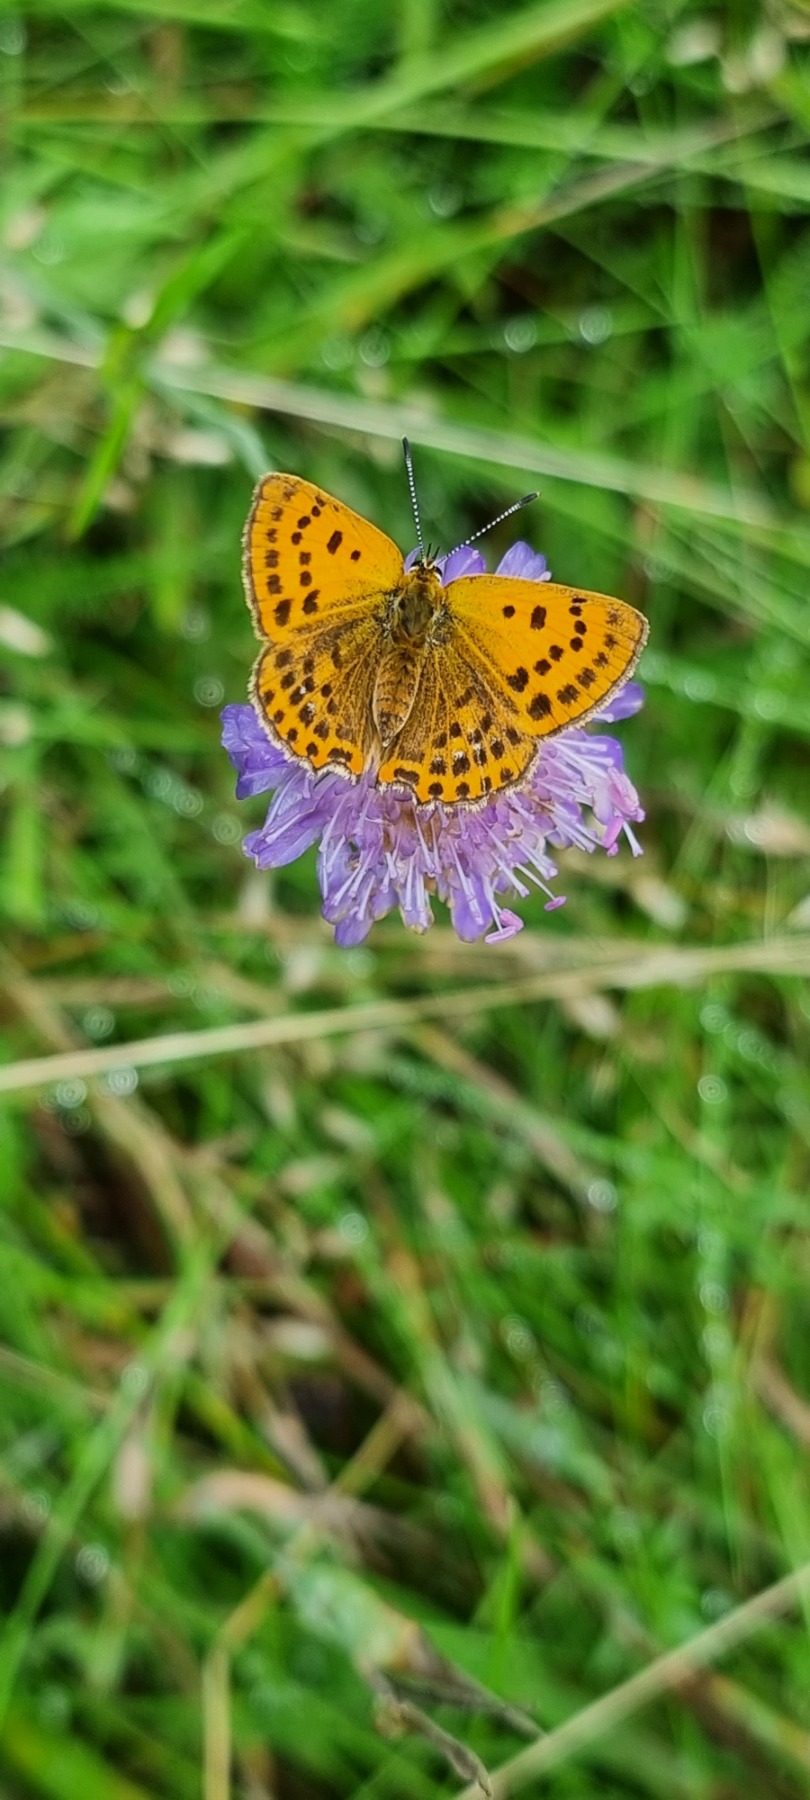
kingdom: Animalia
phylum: Arthropoda
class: Insecta
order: Lepidoptera
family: Lycaenidae
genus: Lycaena
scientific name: Lycaena virgaureae
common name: Dukatsommerfugl
